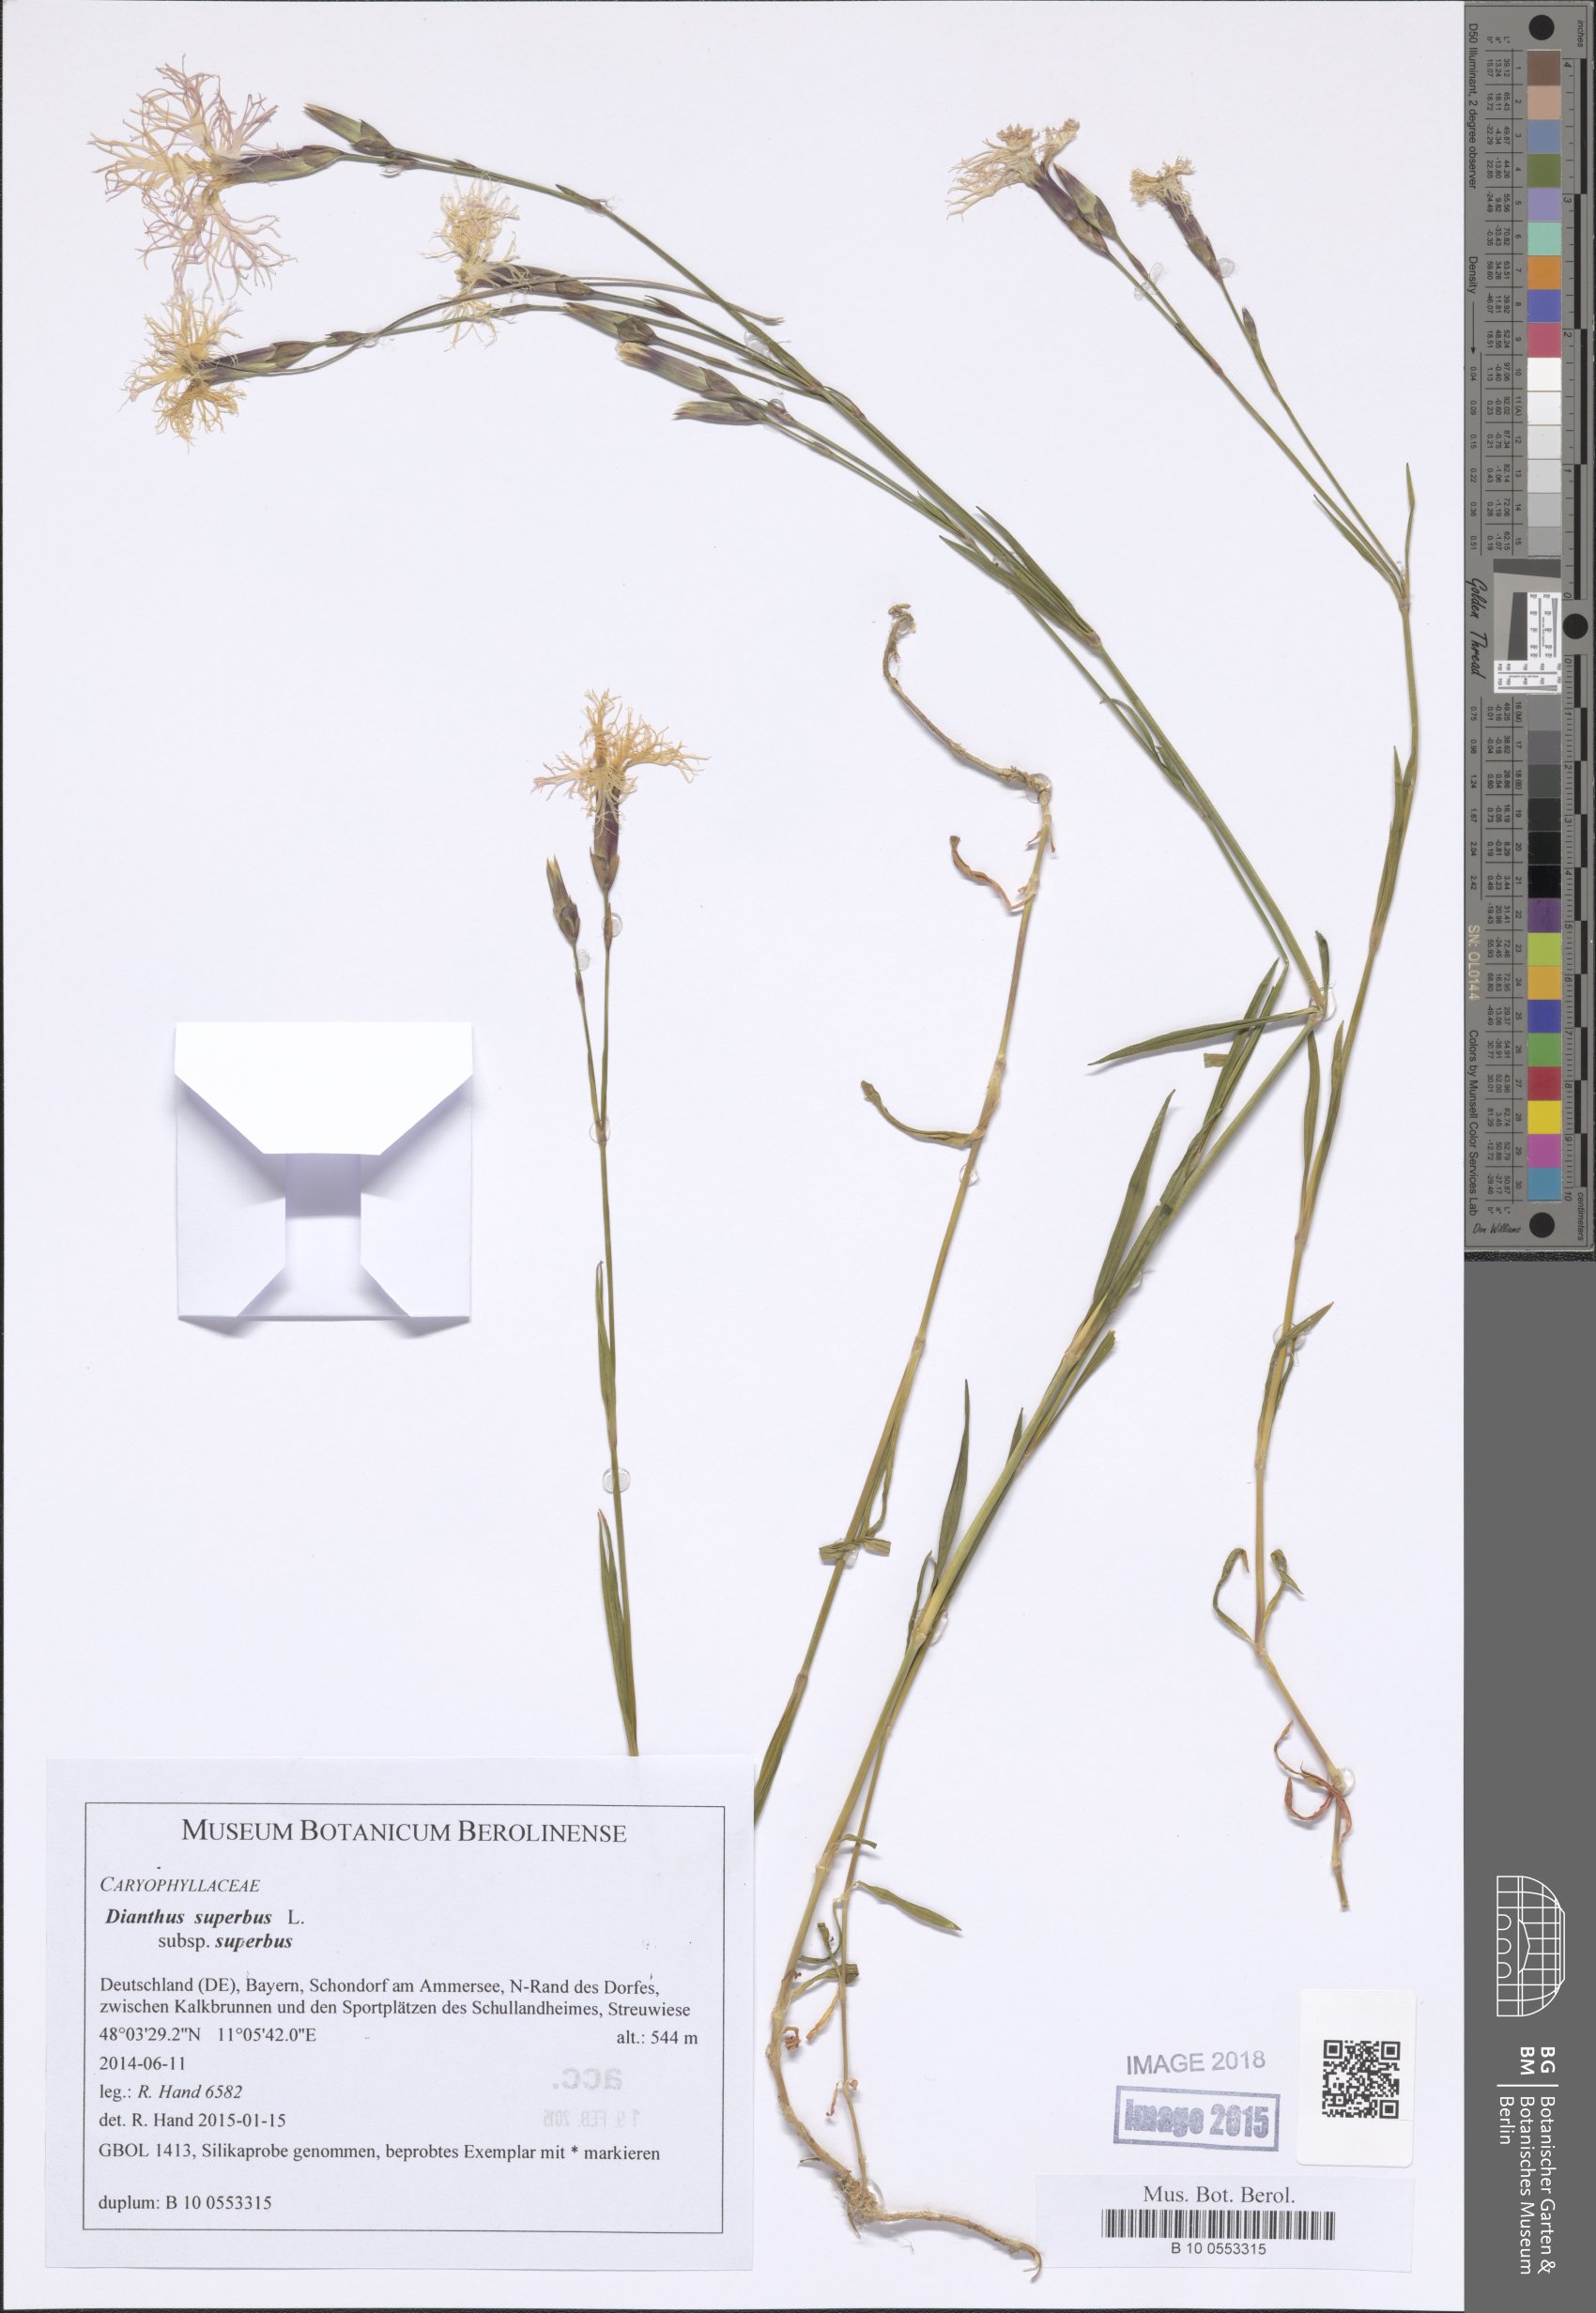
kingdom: Plantae
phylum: Tracheophyta
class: Magnoliopsida
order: Caryophyllales
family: Caryophyllaceae
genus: Dianthus
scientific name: Dianthus superbus
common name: Fringed pink
